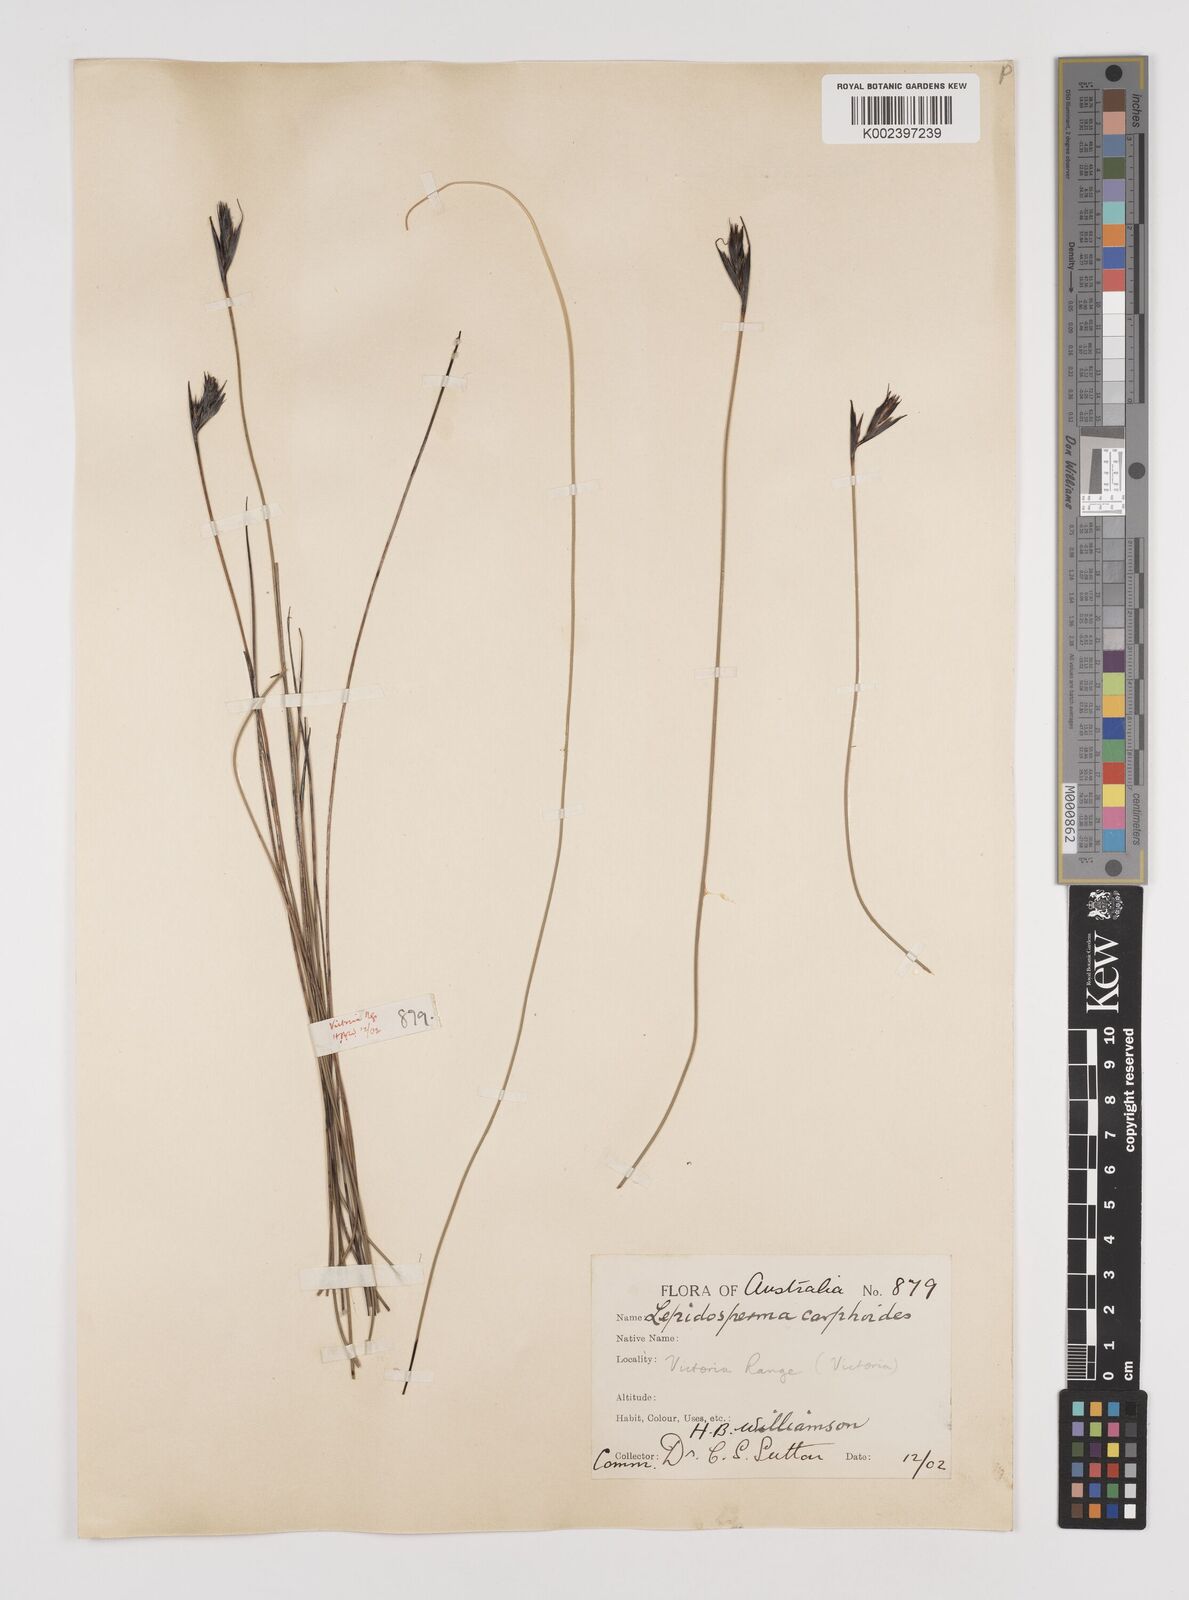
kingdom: Plantae
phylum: Tracheophyta
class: Liliopsida
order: Poales
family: Cyperaceae
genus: Lepidosperma
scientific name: Lepidosperma carphoides
